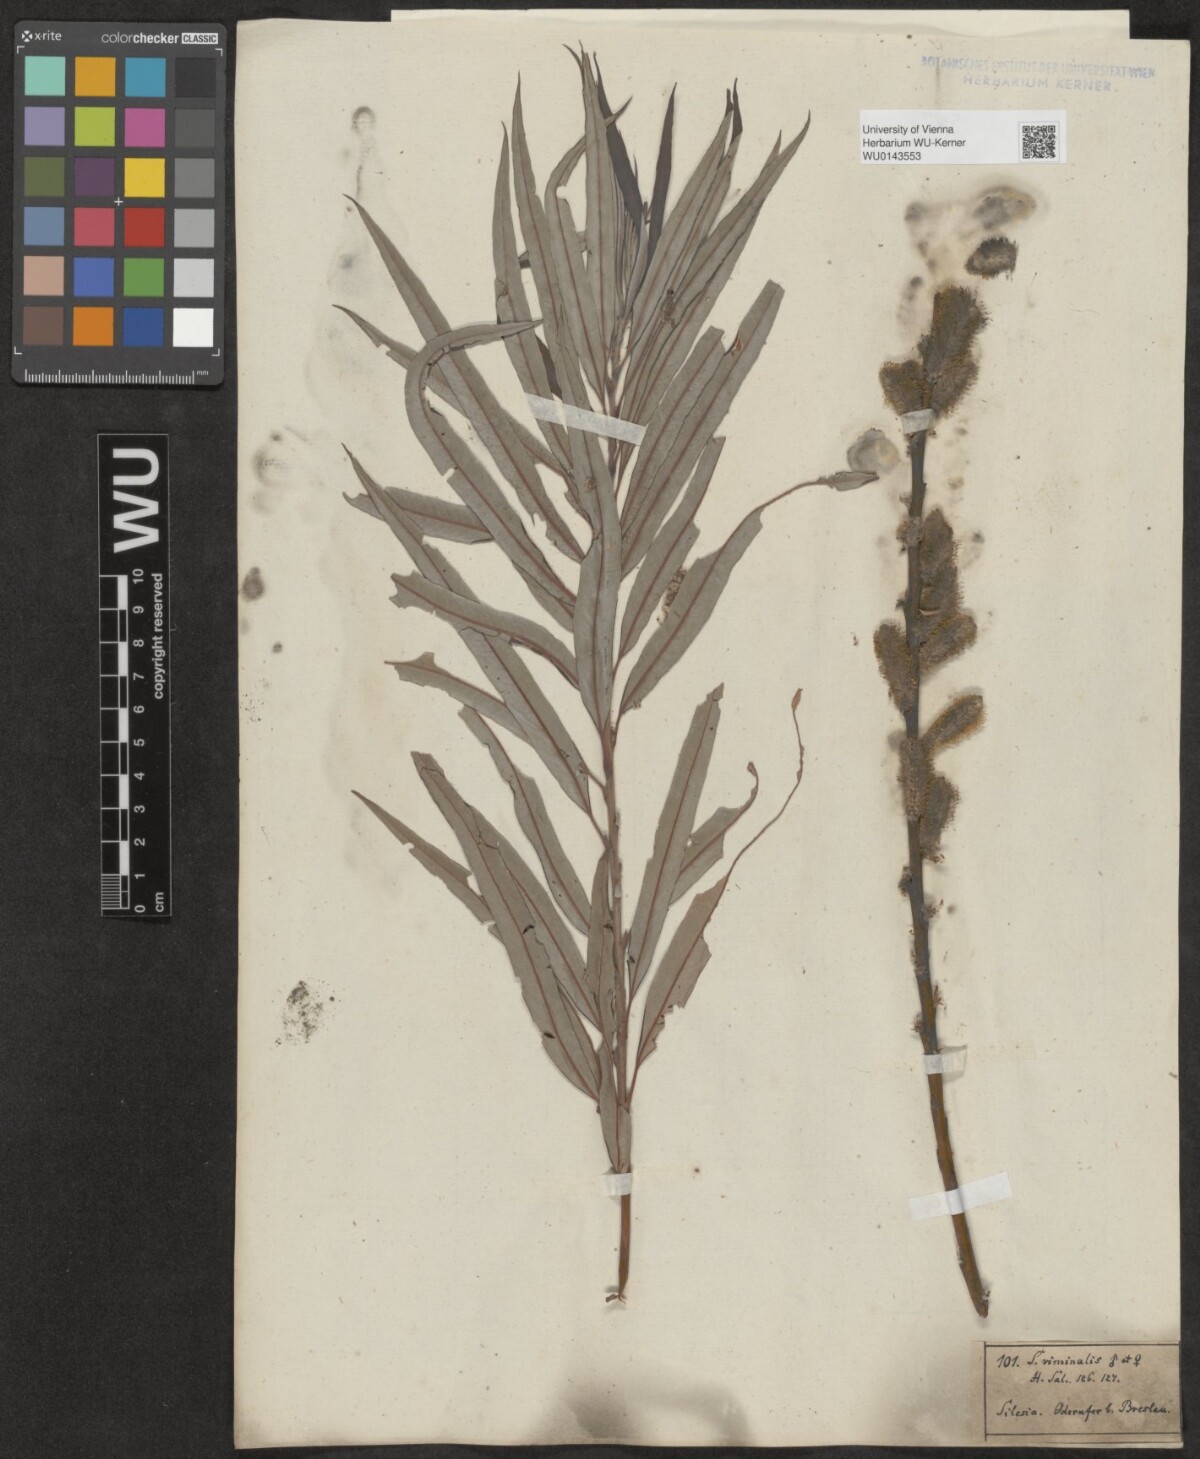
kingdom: Plantae
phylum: Tracheophyta
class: Magnoliopsida
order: Malpighiales
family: Salicaceae
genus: Salix
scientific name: Salix viminalis
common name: Osier
